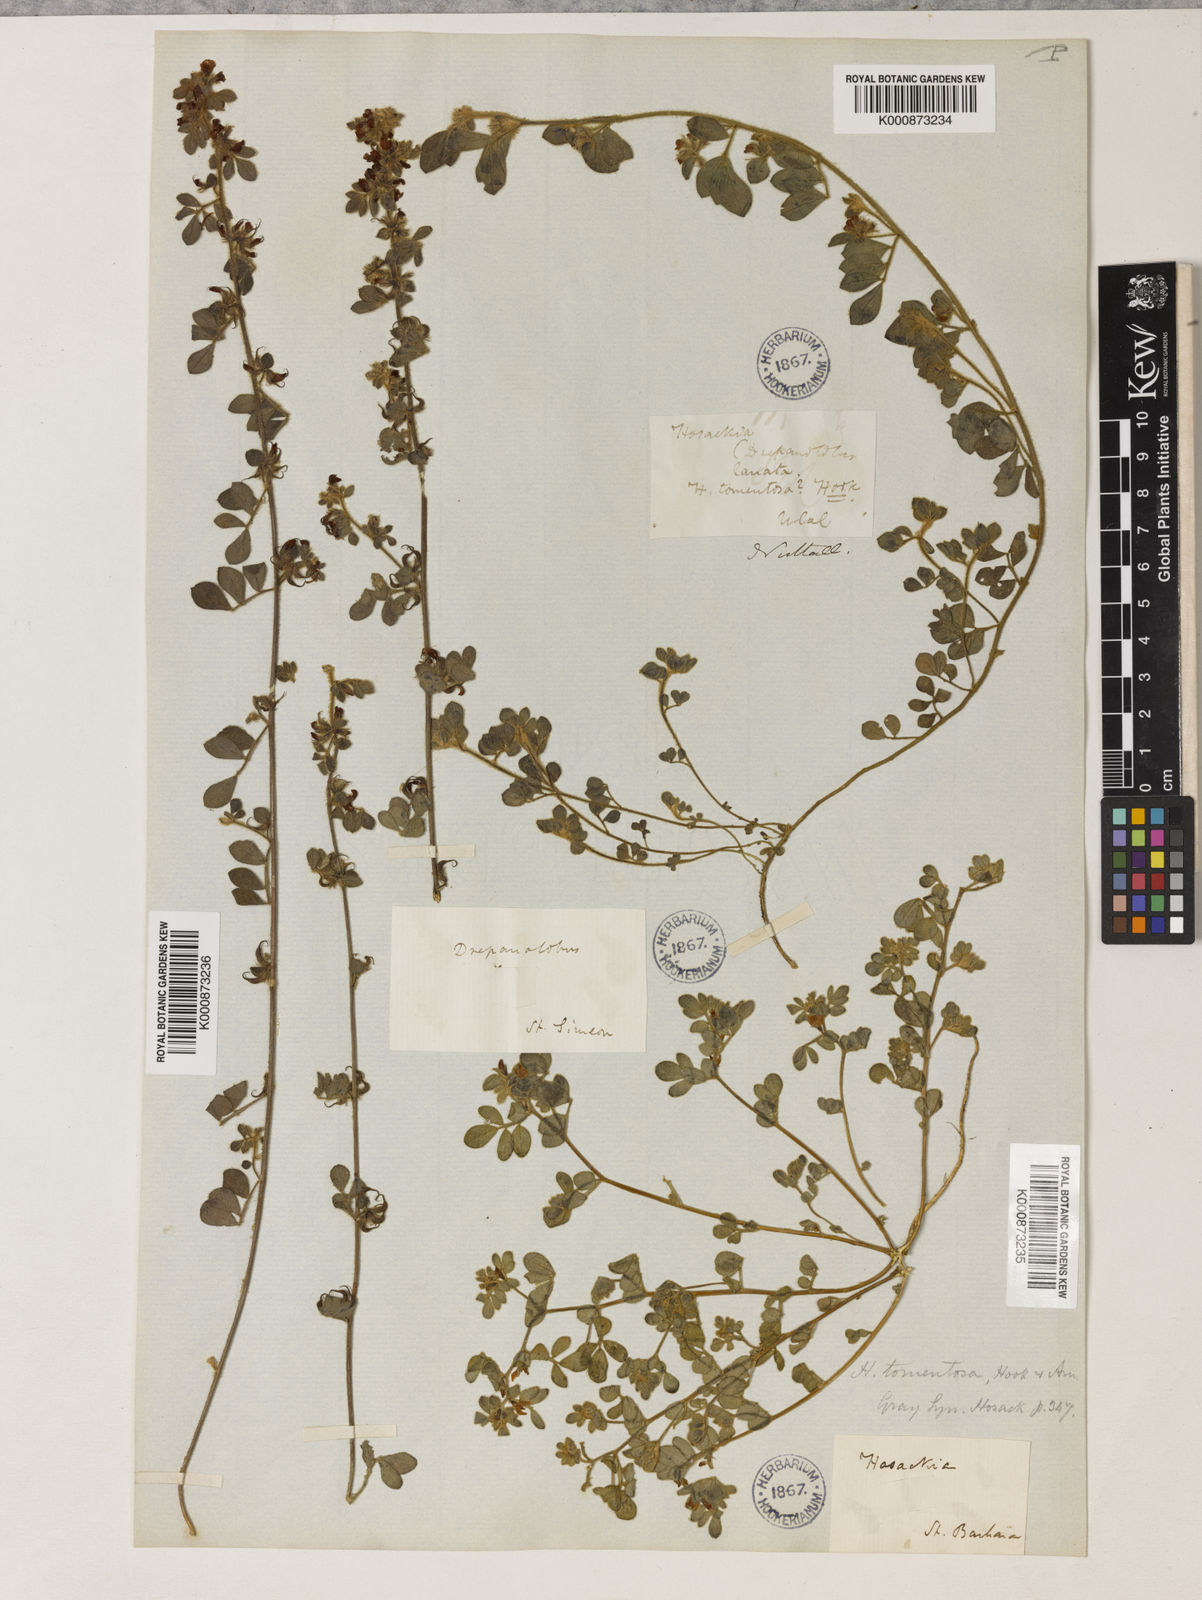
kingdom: Plantae
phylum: Tracheophyta
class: Magnoliopsida
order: Fabales
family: Fabaceae
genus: Acmispon
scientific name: Acmispon tomentosus
